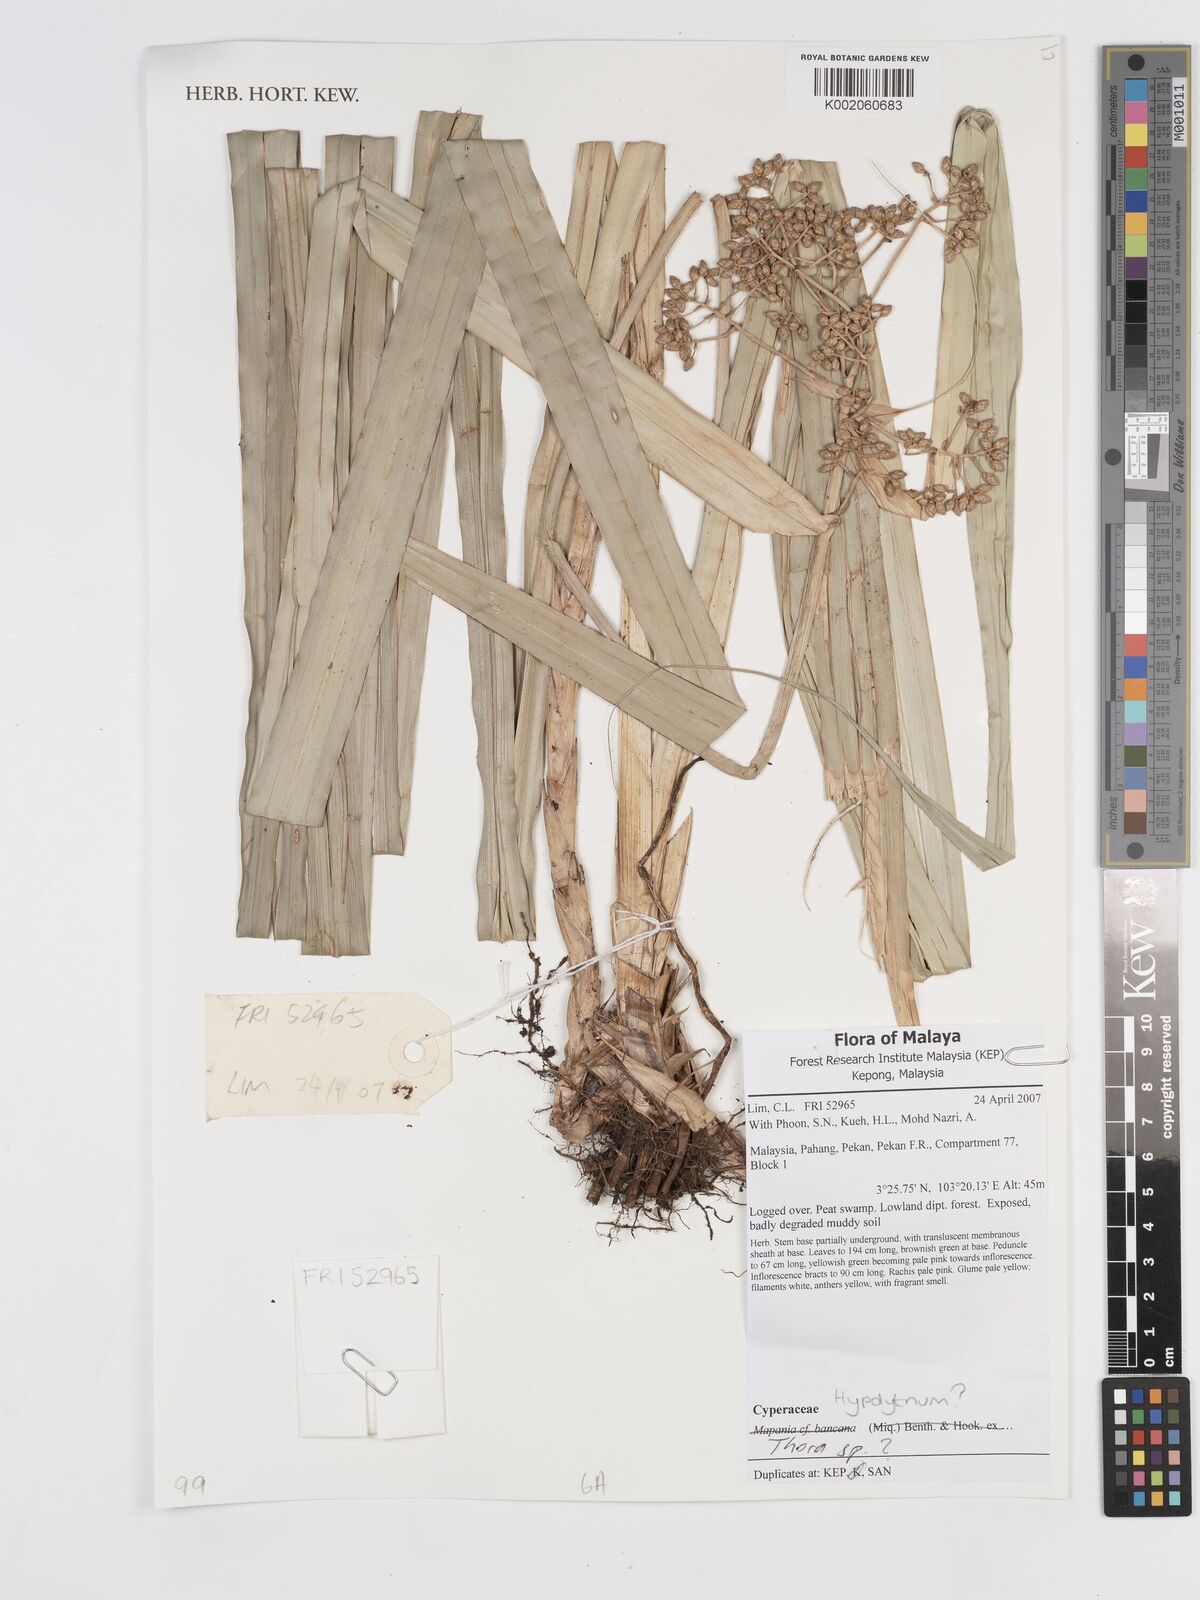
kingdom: Plantae
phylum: Tracheophyta
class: Liliopsida
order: Poales
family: Cyperaceae
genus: Hypolytrum
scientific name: Hypolytrum
